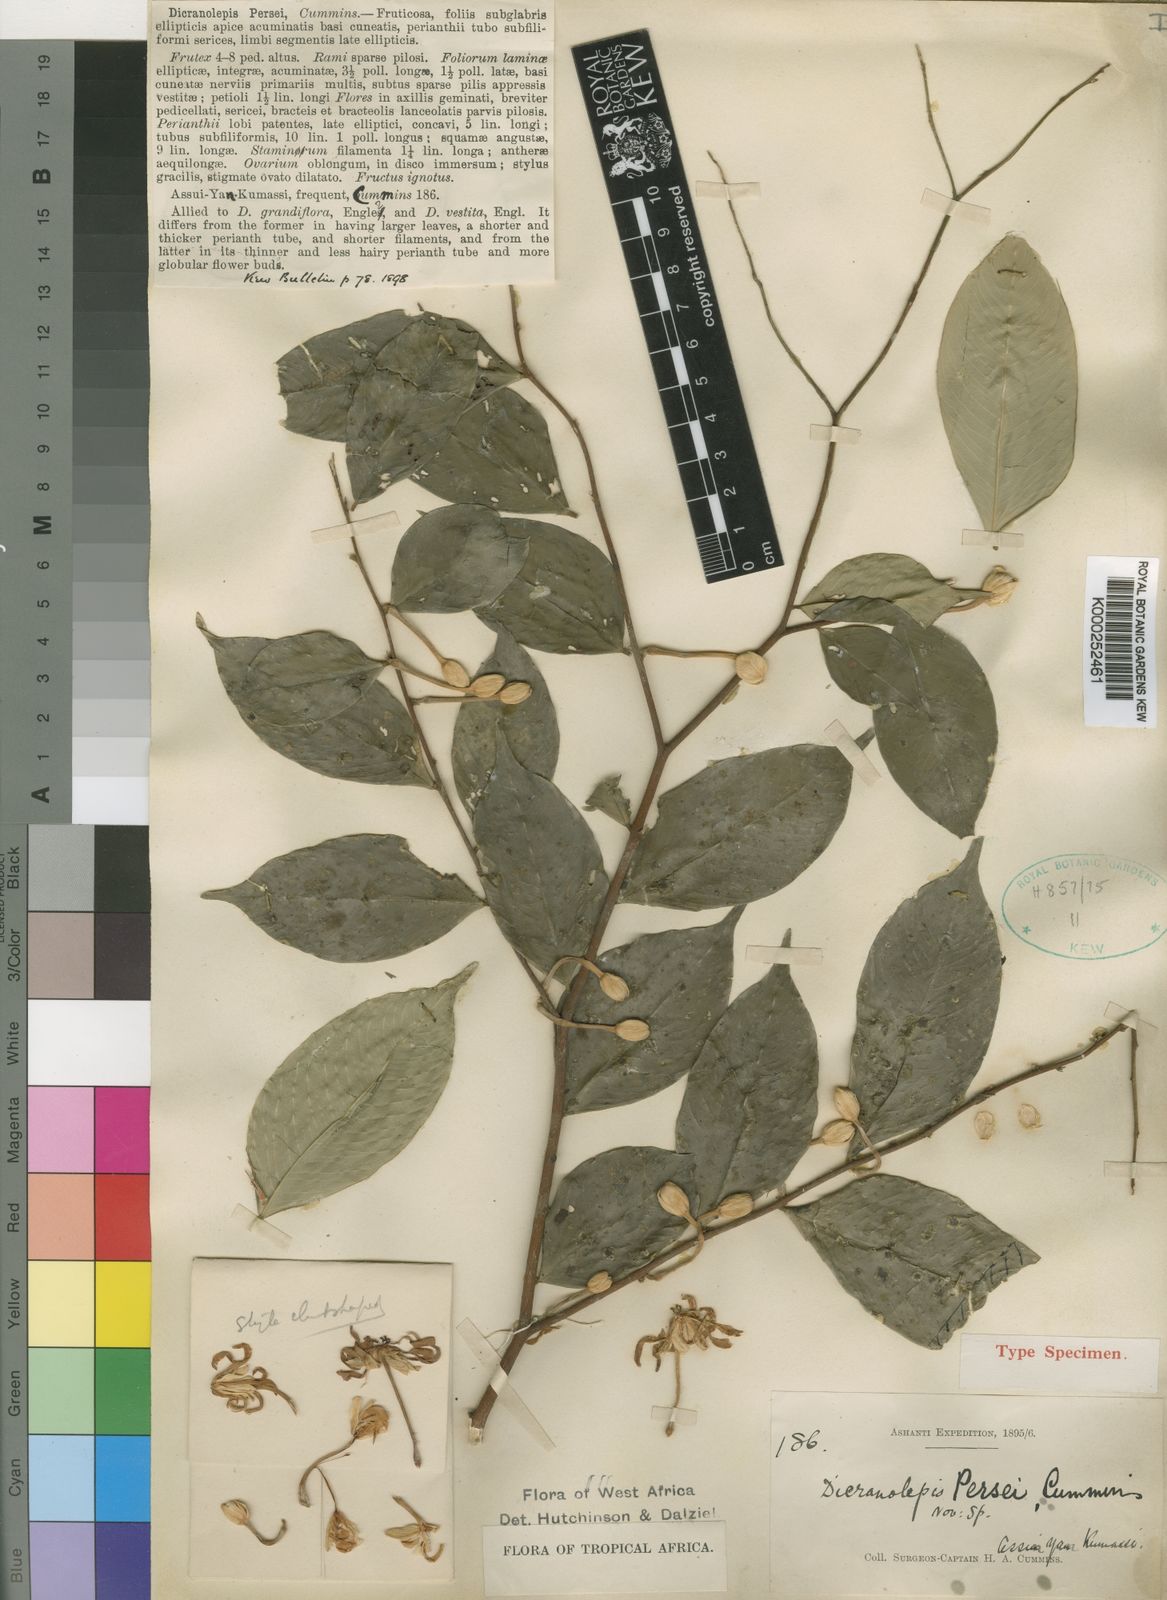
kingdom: Plantae
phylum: Tracheophyta
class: Magnoliopsida
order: Malvales
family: Thymelaeaceae
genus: Dicranolepis
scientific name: Dicranolepis persei
